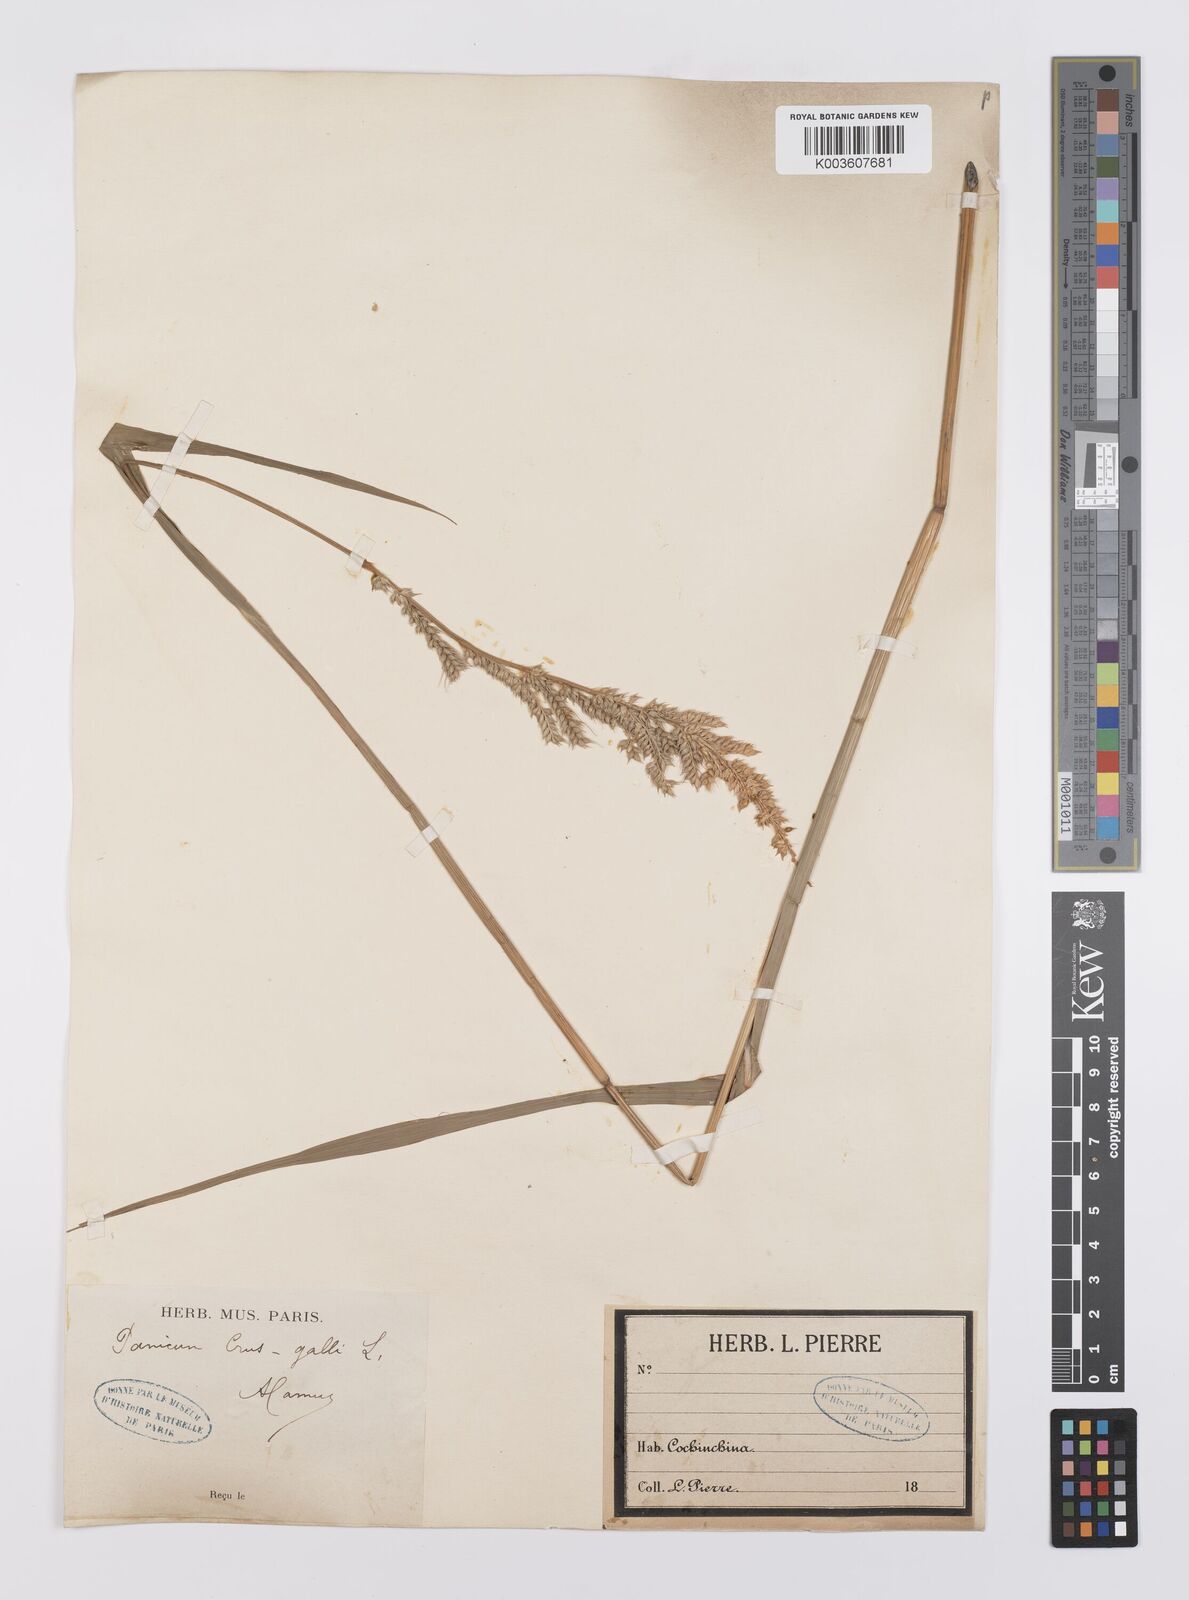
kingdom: Plantae
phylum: Tracheophyta
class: Liliopsida
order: Poales
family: Poaceae
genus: Echinochloa
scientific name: Echinochloa crus-galli
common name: Cockspur
